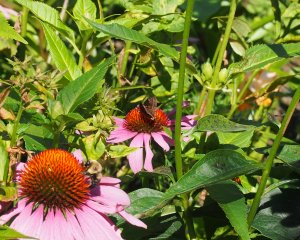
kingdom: Animalia
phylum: Arthropoda
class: Insecta
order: Lepidoptera
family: Hesperiidae
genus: Gesta
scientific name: Gesta
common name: Wild Indigo Duskywing
